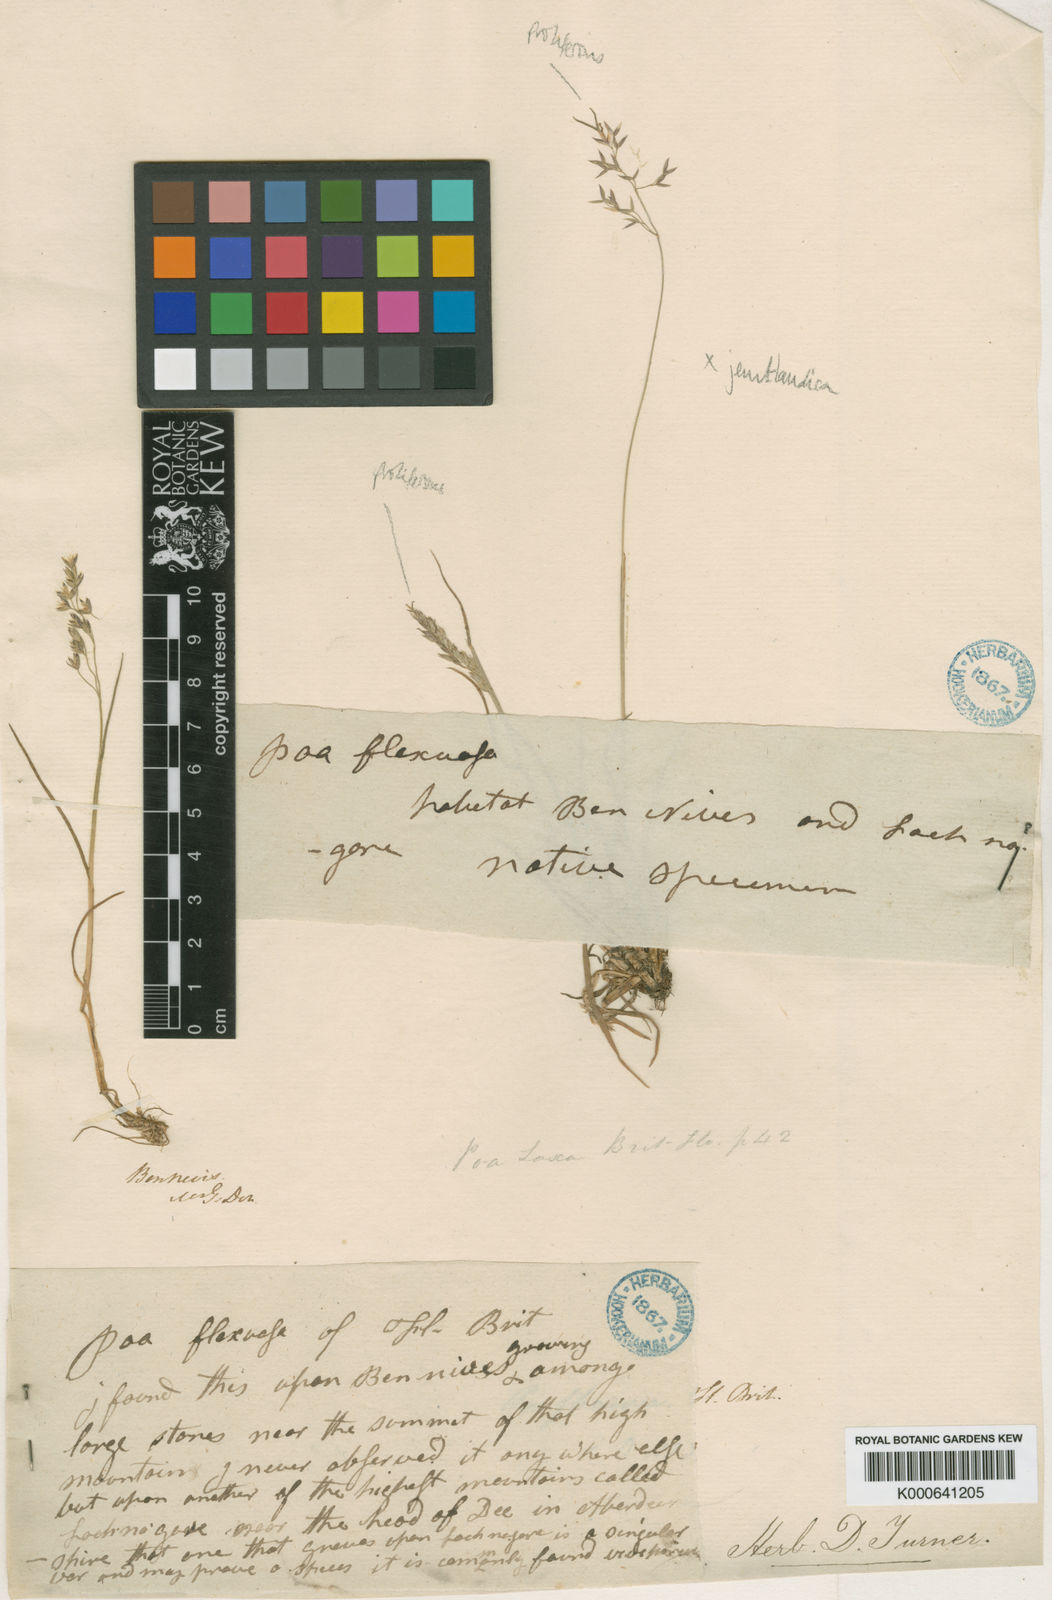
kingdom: Plantae
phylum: Tracheophyta
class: Liliopsida
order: Poales
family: Poaceae
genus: Poa
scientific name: Poa flexuosa
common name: Wavy meadow-grass
